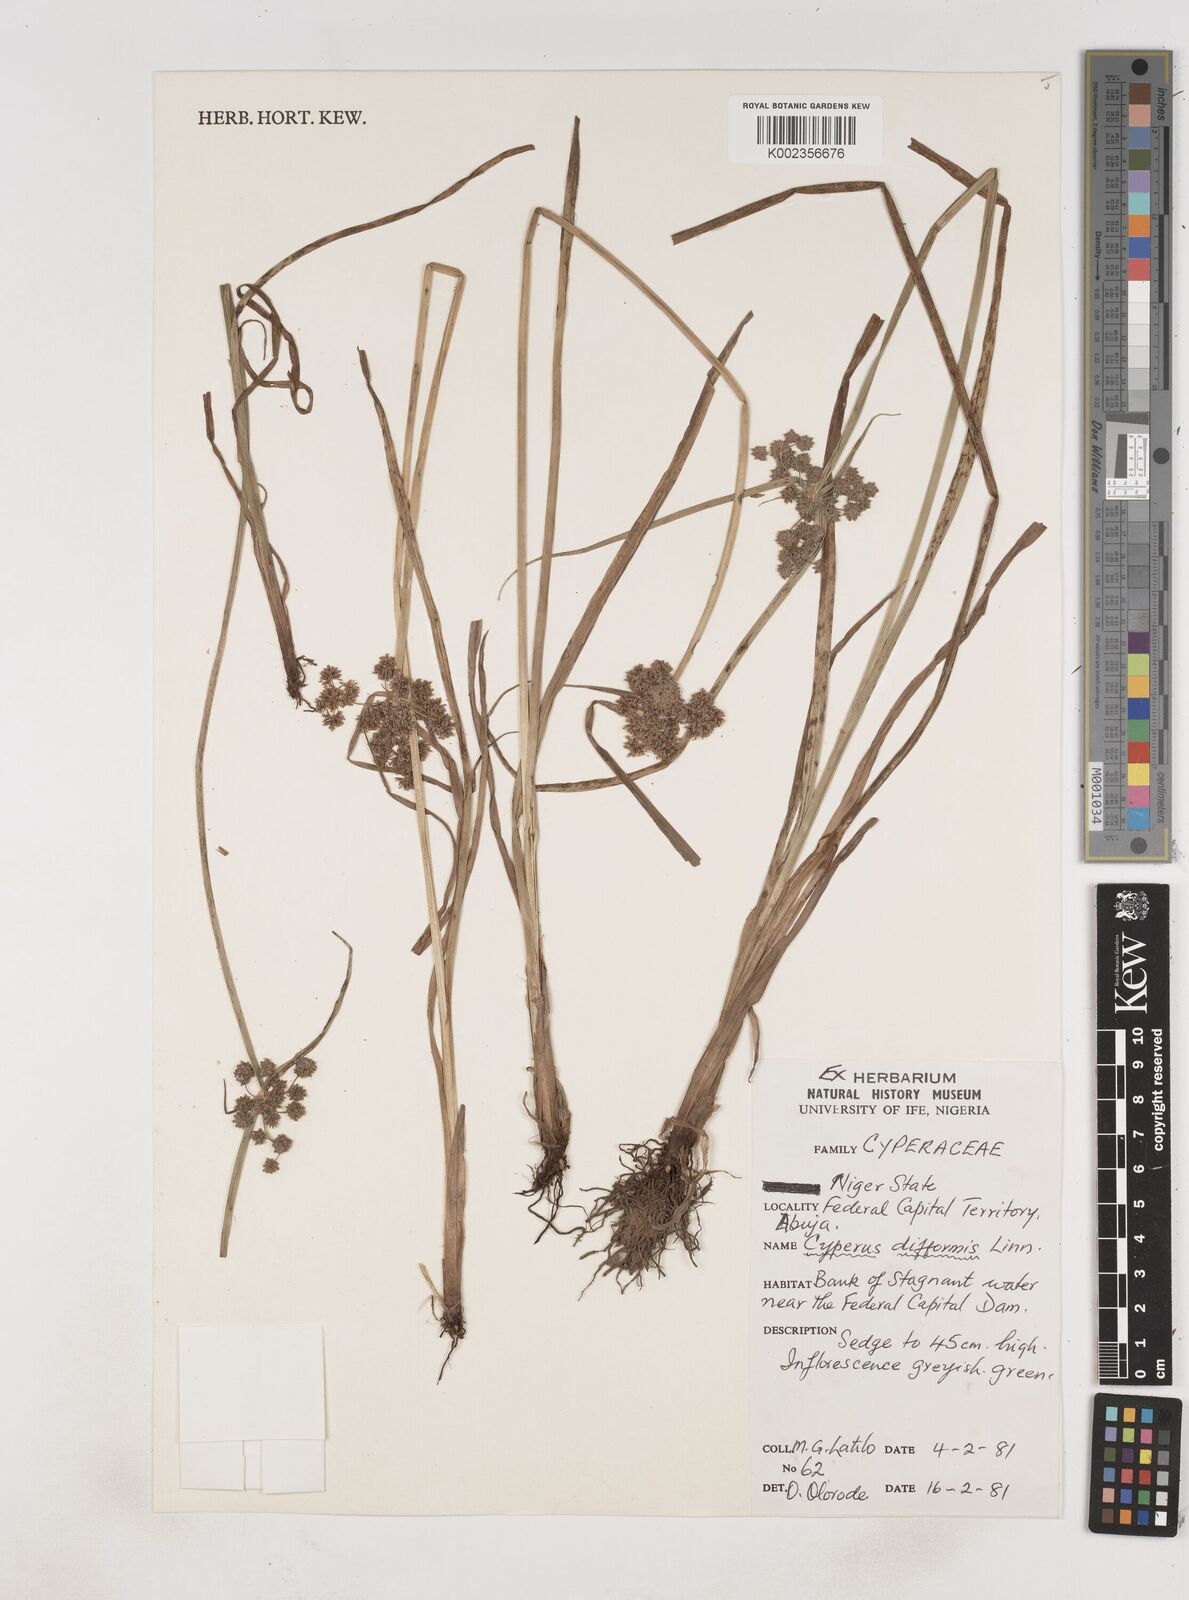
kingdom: Plantae
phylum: Tracheophyta
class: Liliopsida
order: Poales
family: Cyperaceae
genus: Cyperus
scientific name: Cyperus difformis
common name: Variable flatsedge
